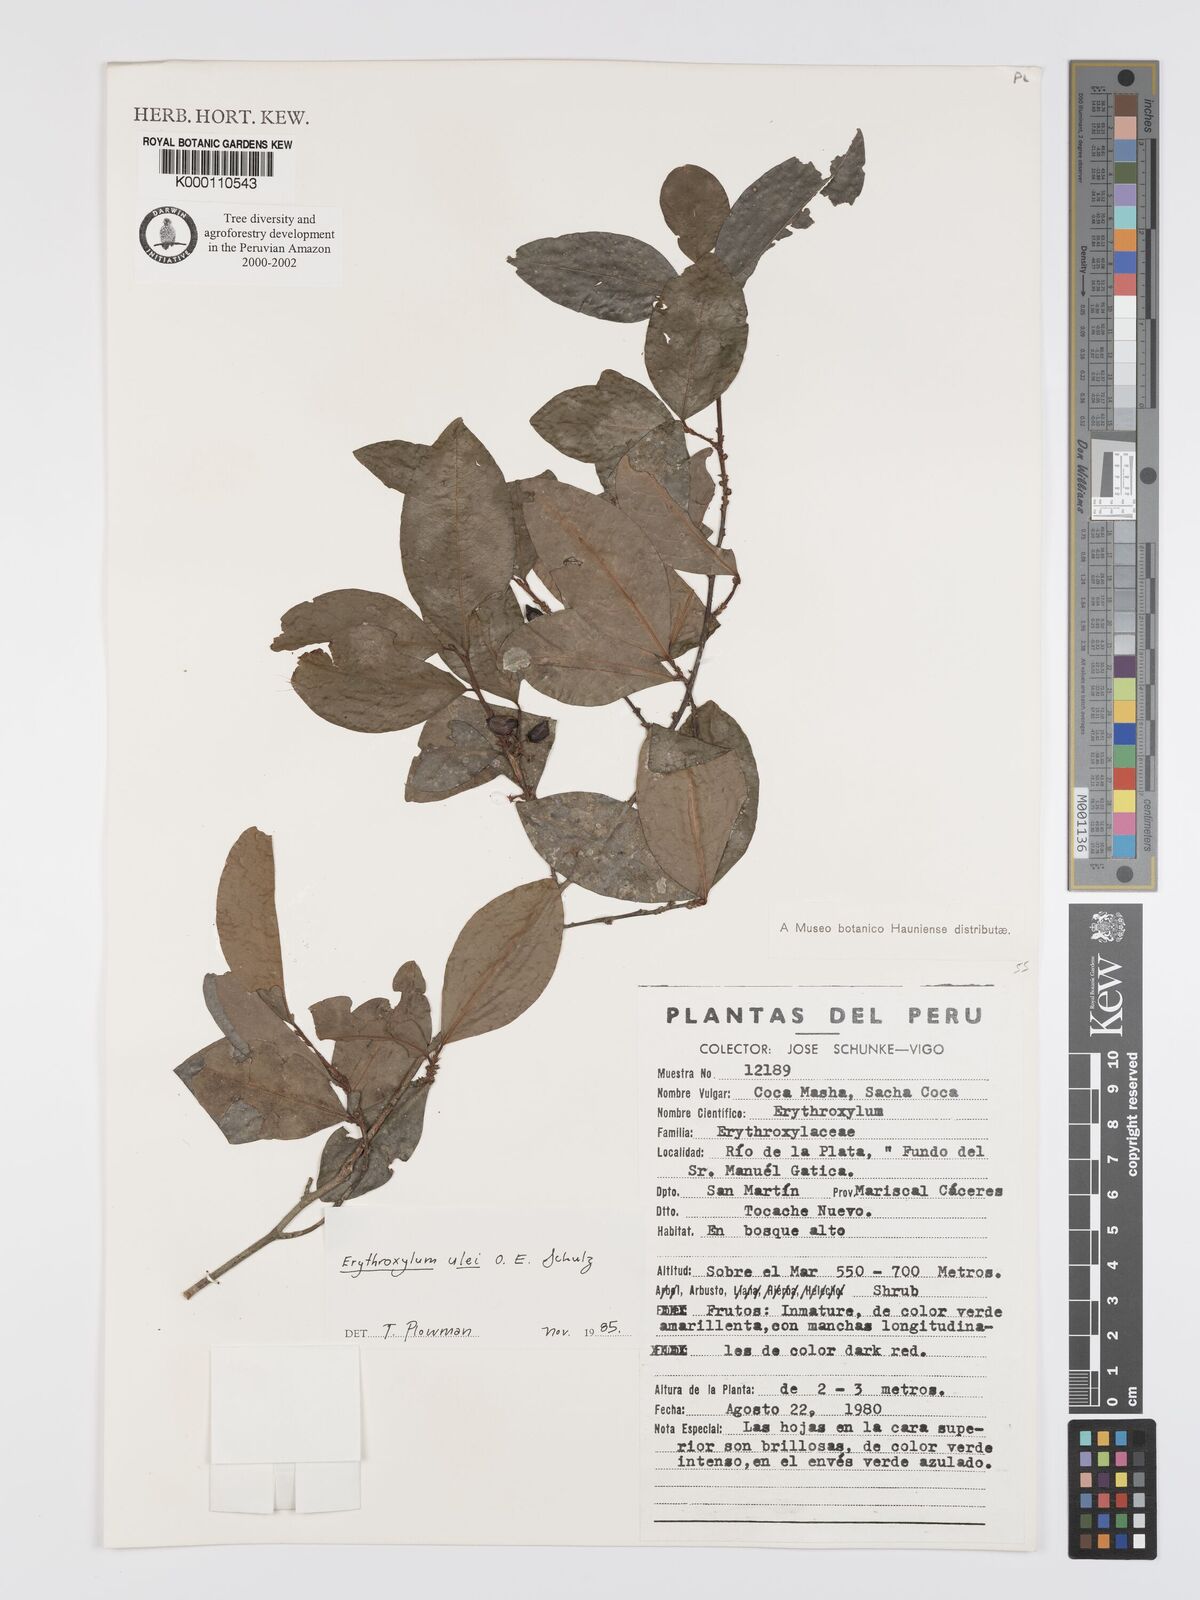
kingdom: Plantae
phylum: Tracheophyta
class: Magnoliopsida
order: Malpighiales
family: Erythroxylaceae
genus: Erythroxylum
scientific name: Erythroxylum ulei
